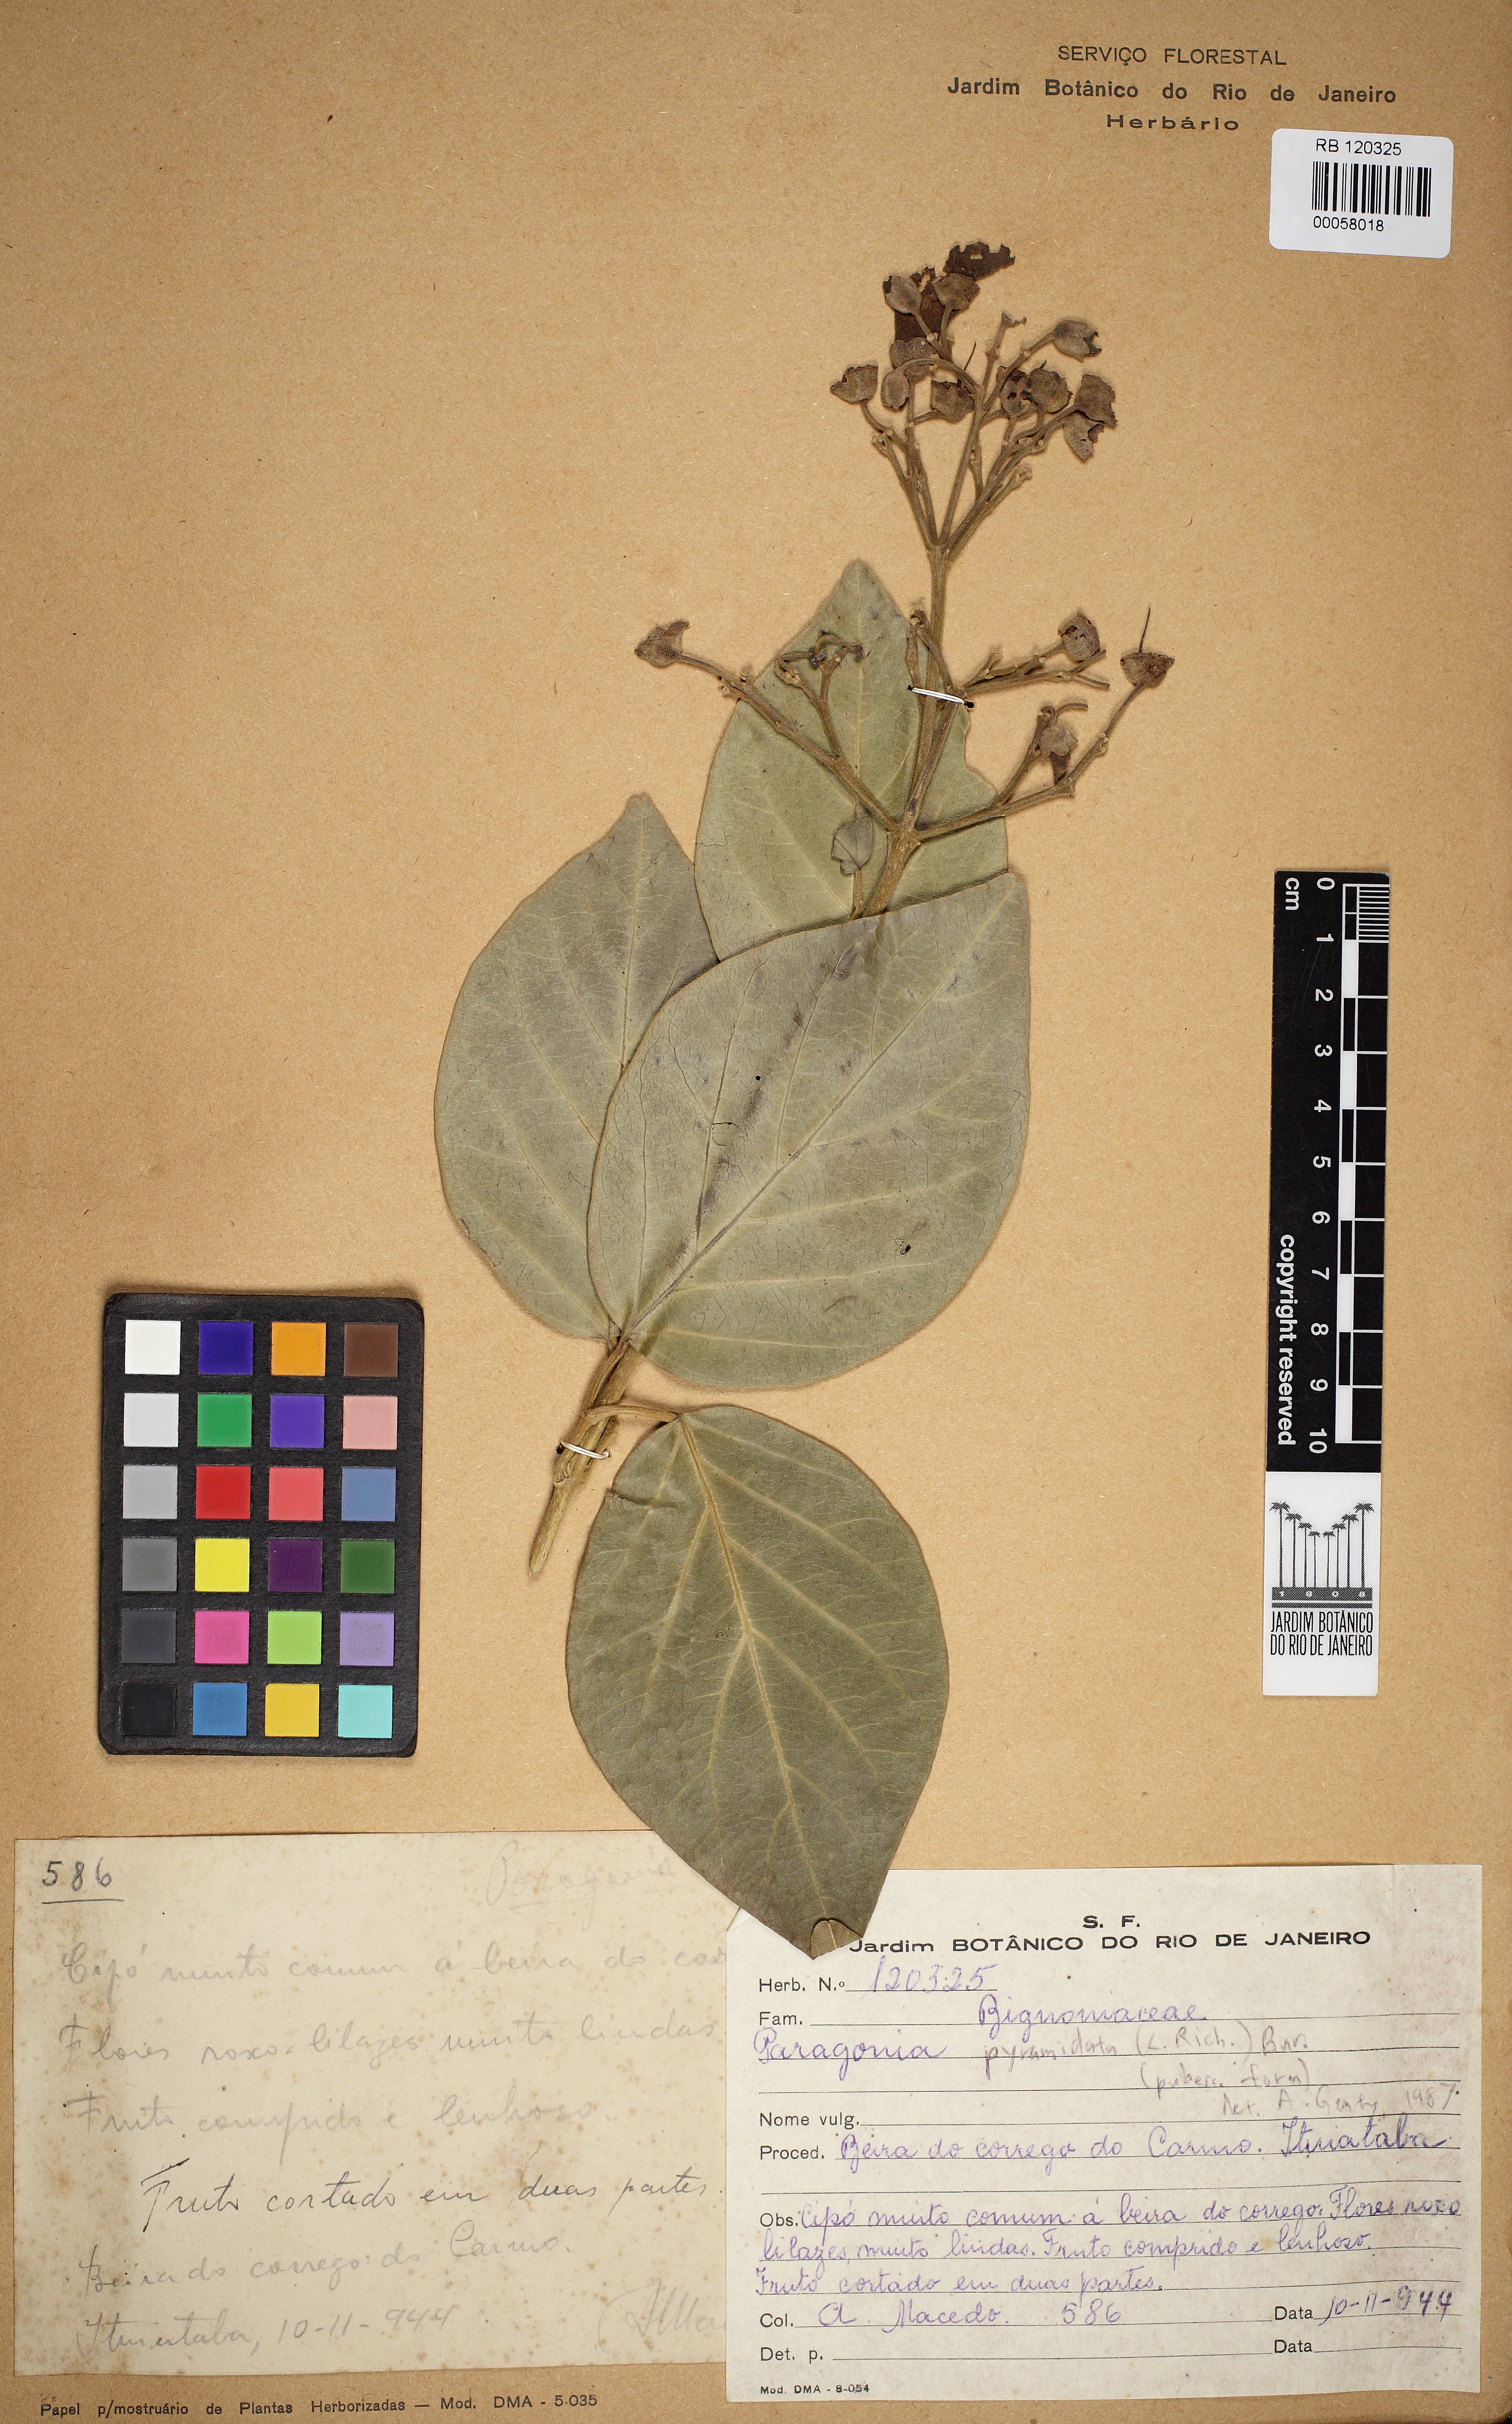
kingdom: Plantae
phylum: Tracheophyta
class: Magnoliopsida
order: Lamiales
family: Bignoniaceae
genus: Tanaecium
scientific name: Tanaecium pyramidatum
